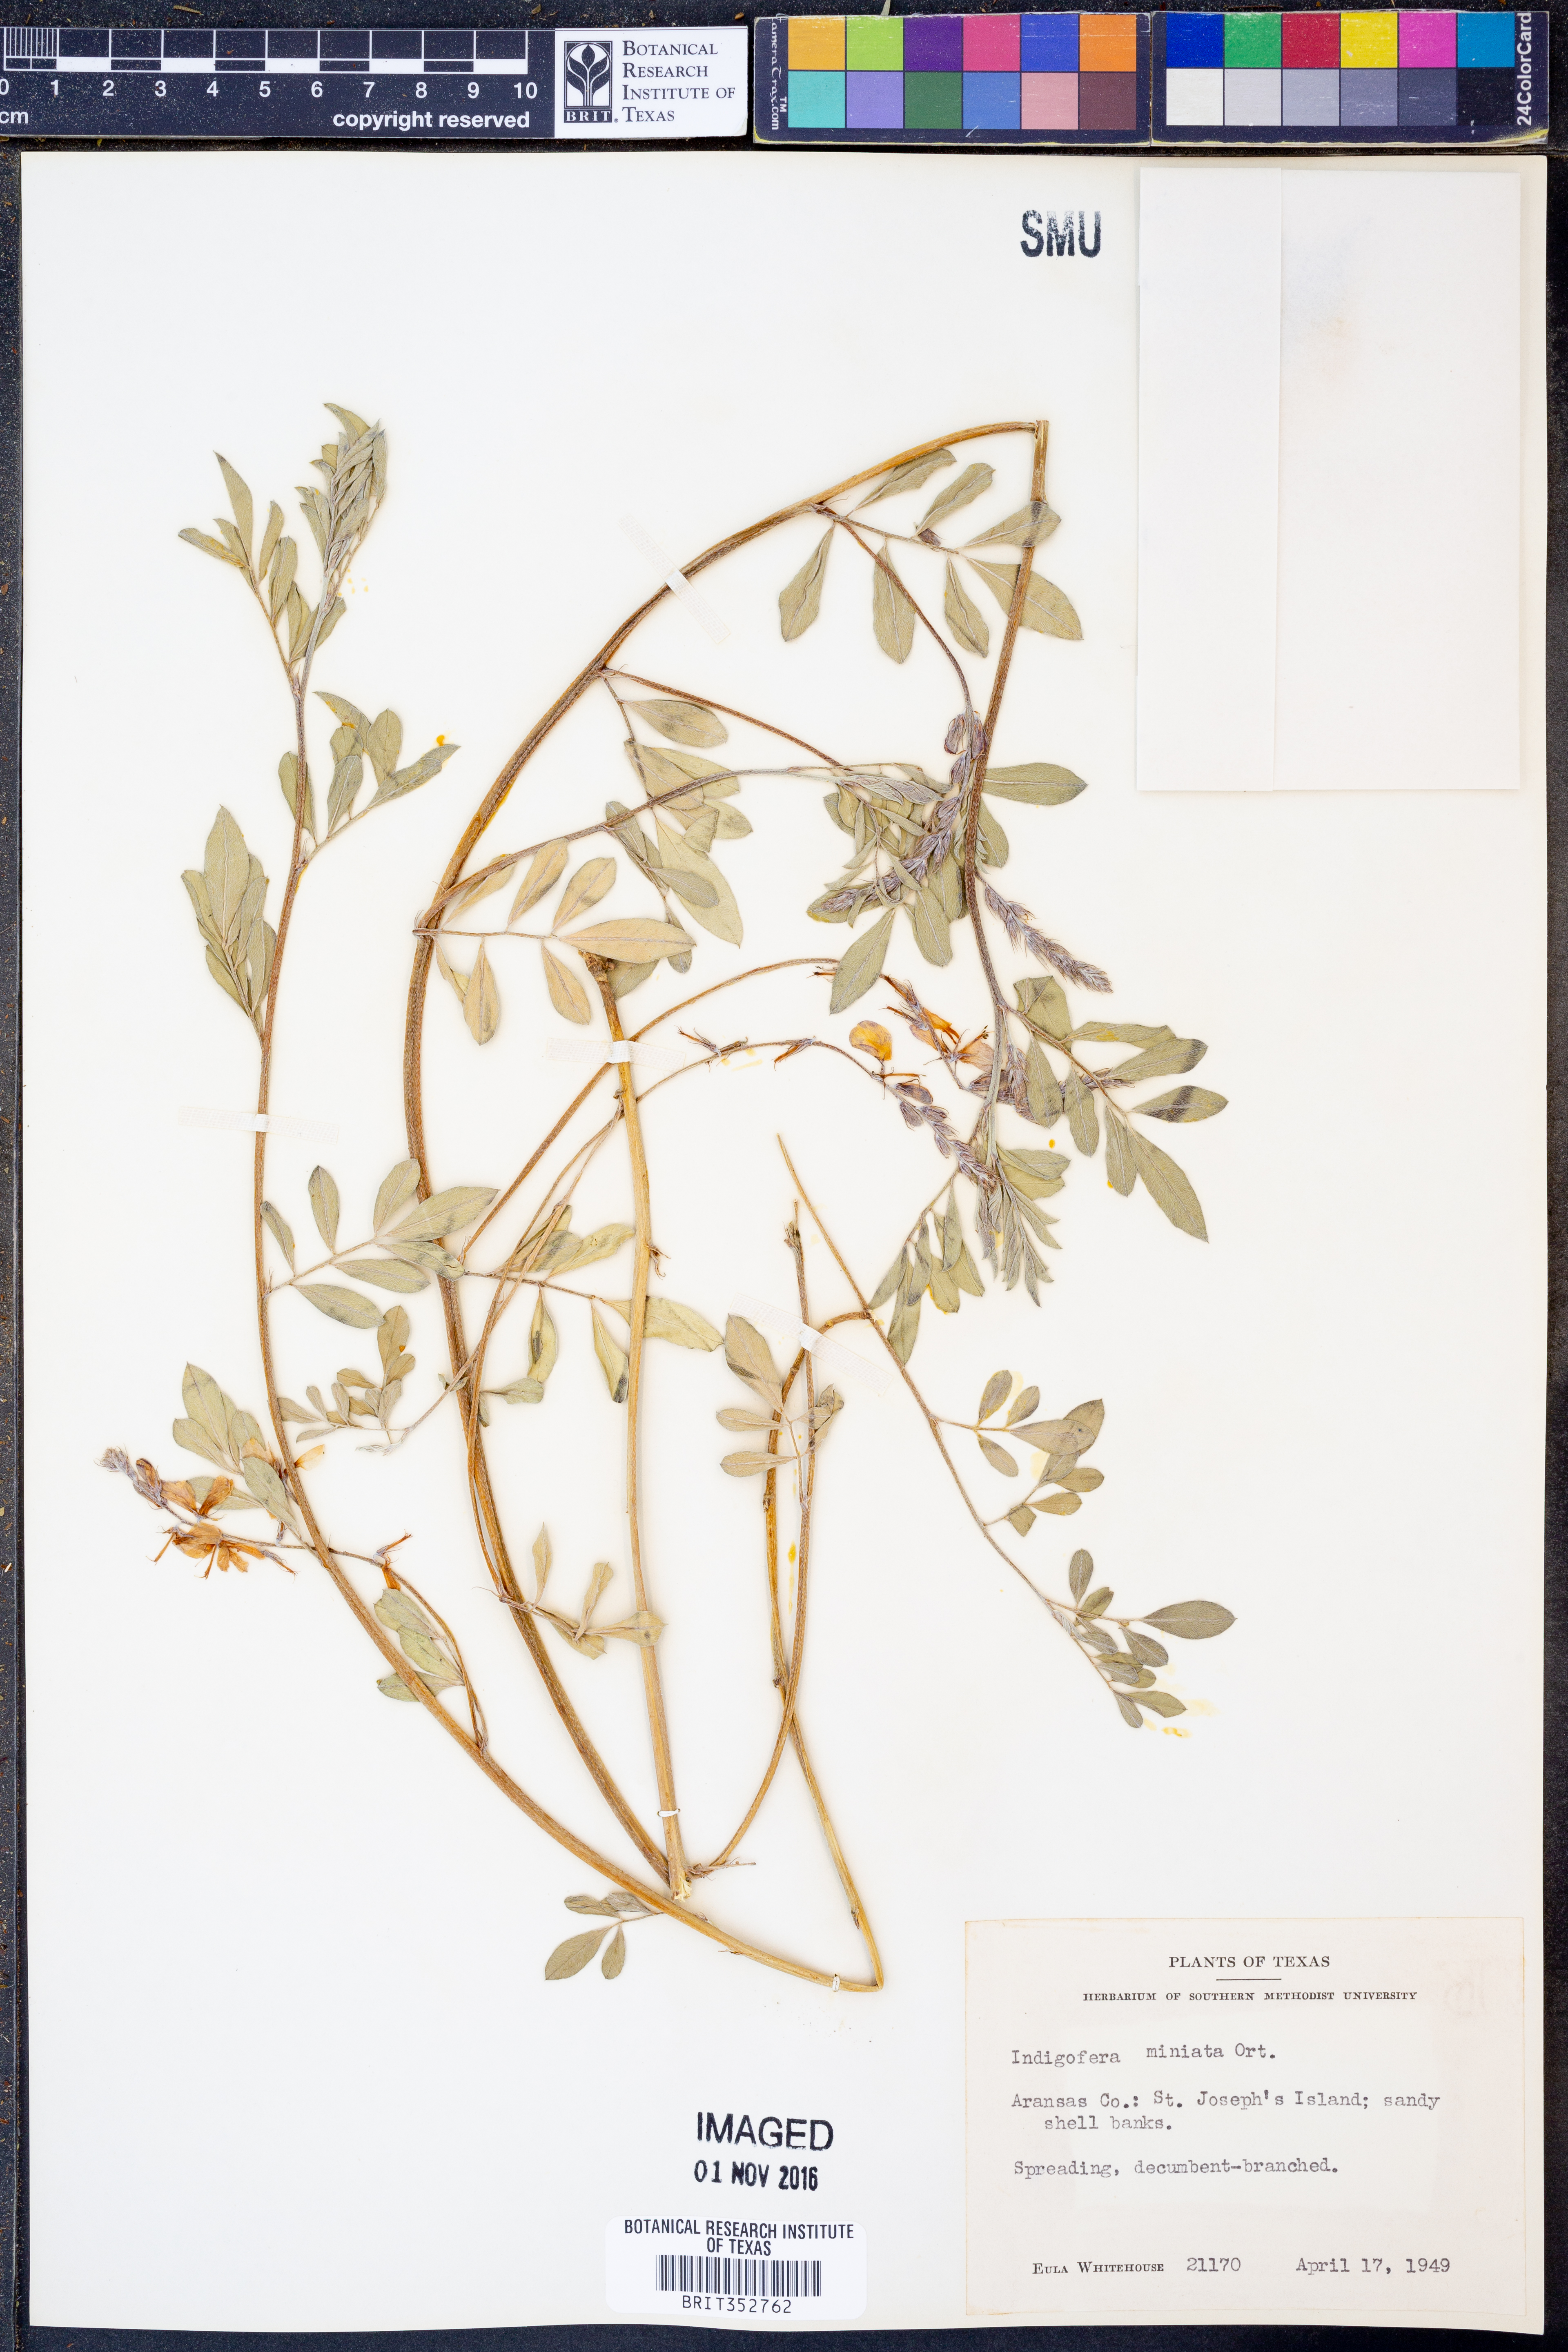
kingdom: Plantae
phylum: Tracheophyta
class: Magnoliopsida
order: Fabales
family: Fabaceae
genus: Indigofera
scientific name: Indigofera miniata
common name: Coast indigo
